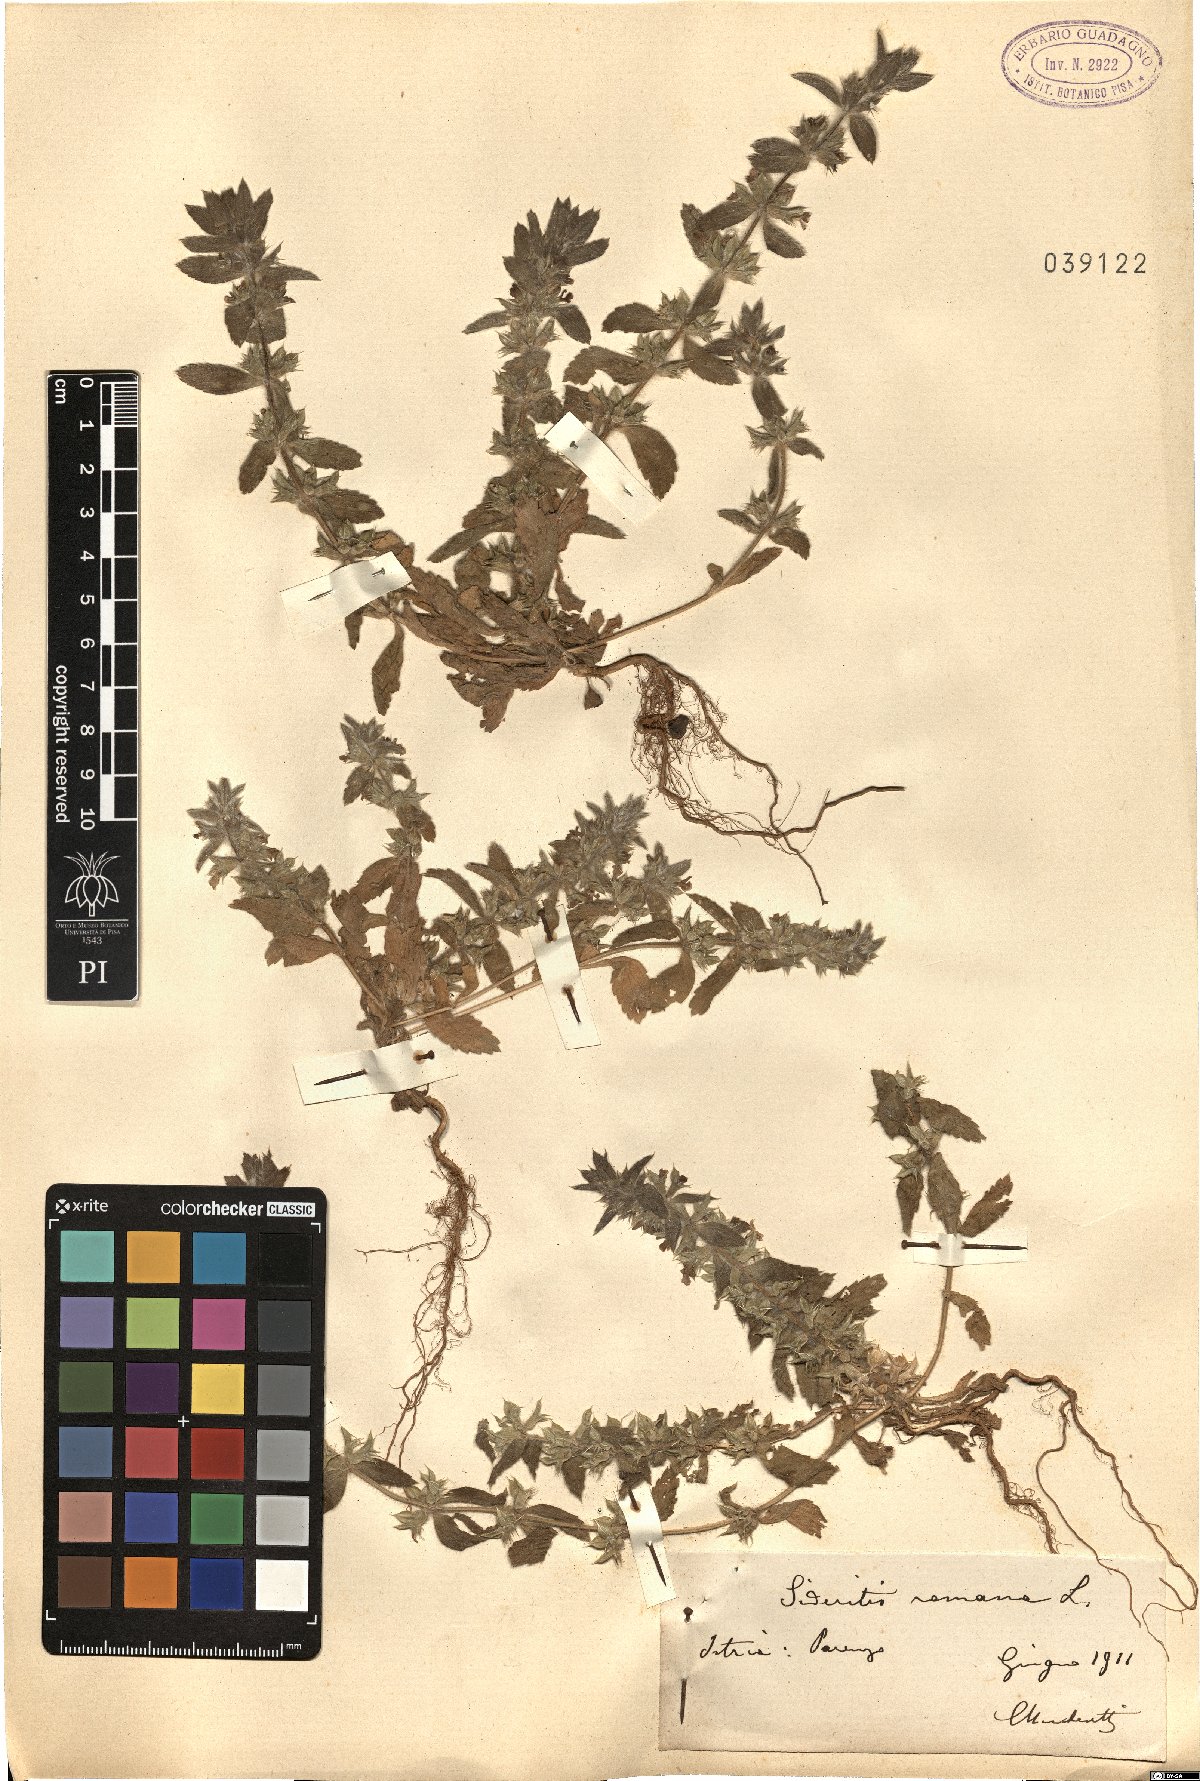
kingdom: Plantae
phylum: Tracheophyta
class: Magnoliopsida
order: Lamiales
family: Lamiaceae
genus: Sideritis
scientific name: Sideritis romana
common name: Simplebeak ironwort
